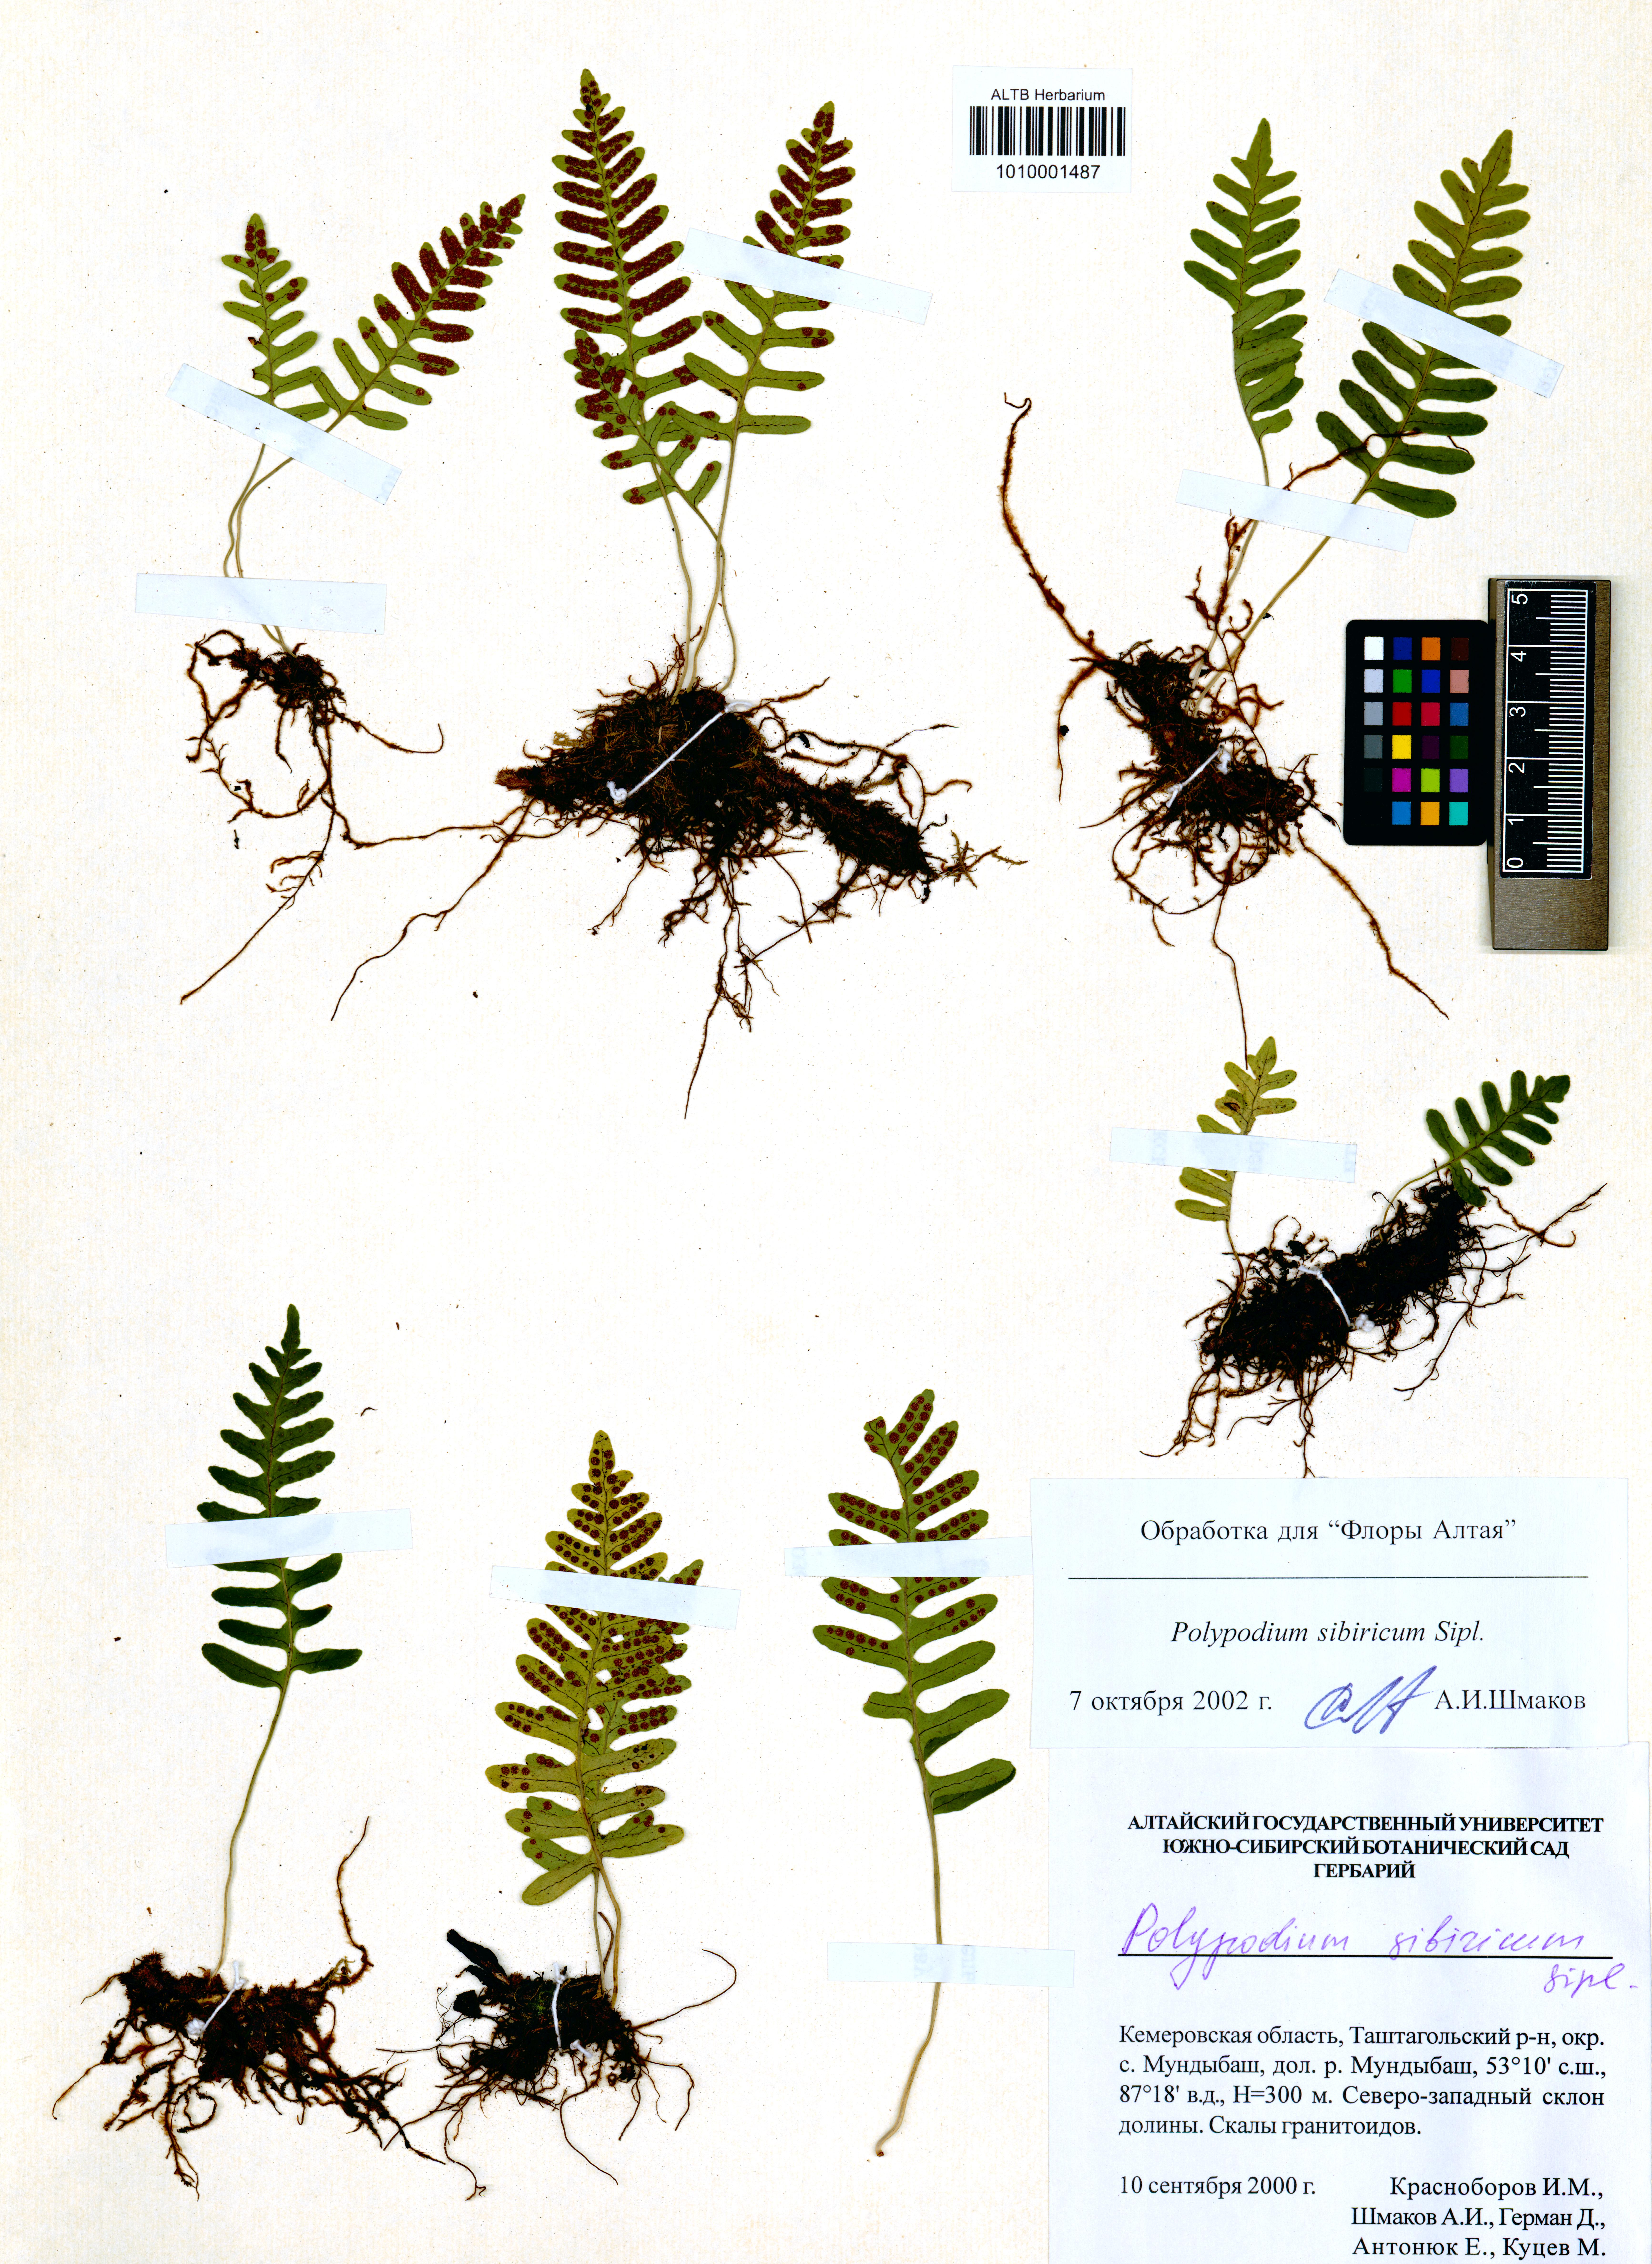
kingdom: Plantae
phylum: Tracheophyta
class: Polypodiopsida
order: Polypodiales
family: Polypodiaceae
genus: Polypodium
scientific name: Polypodium sibiricum
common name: Siberian polypody
